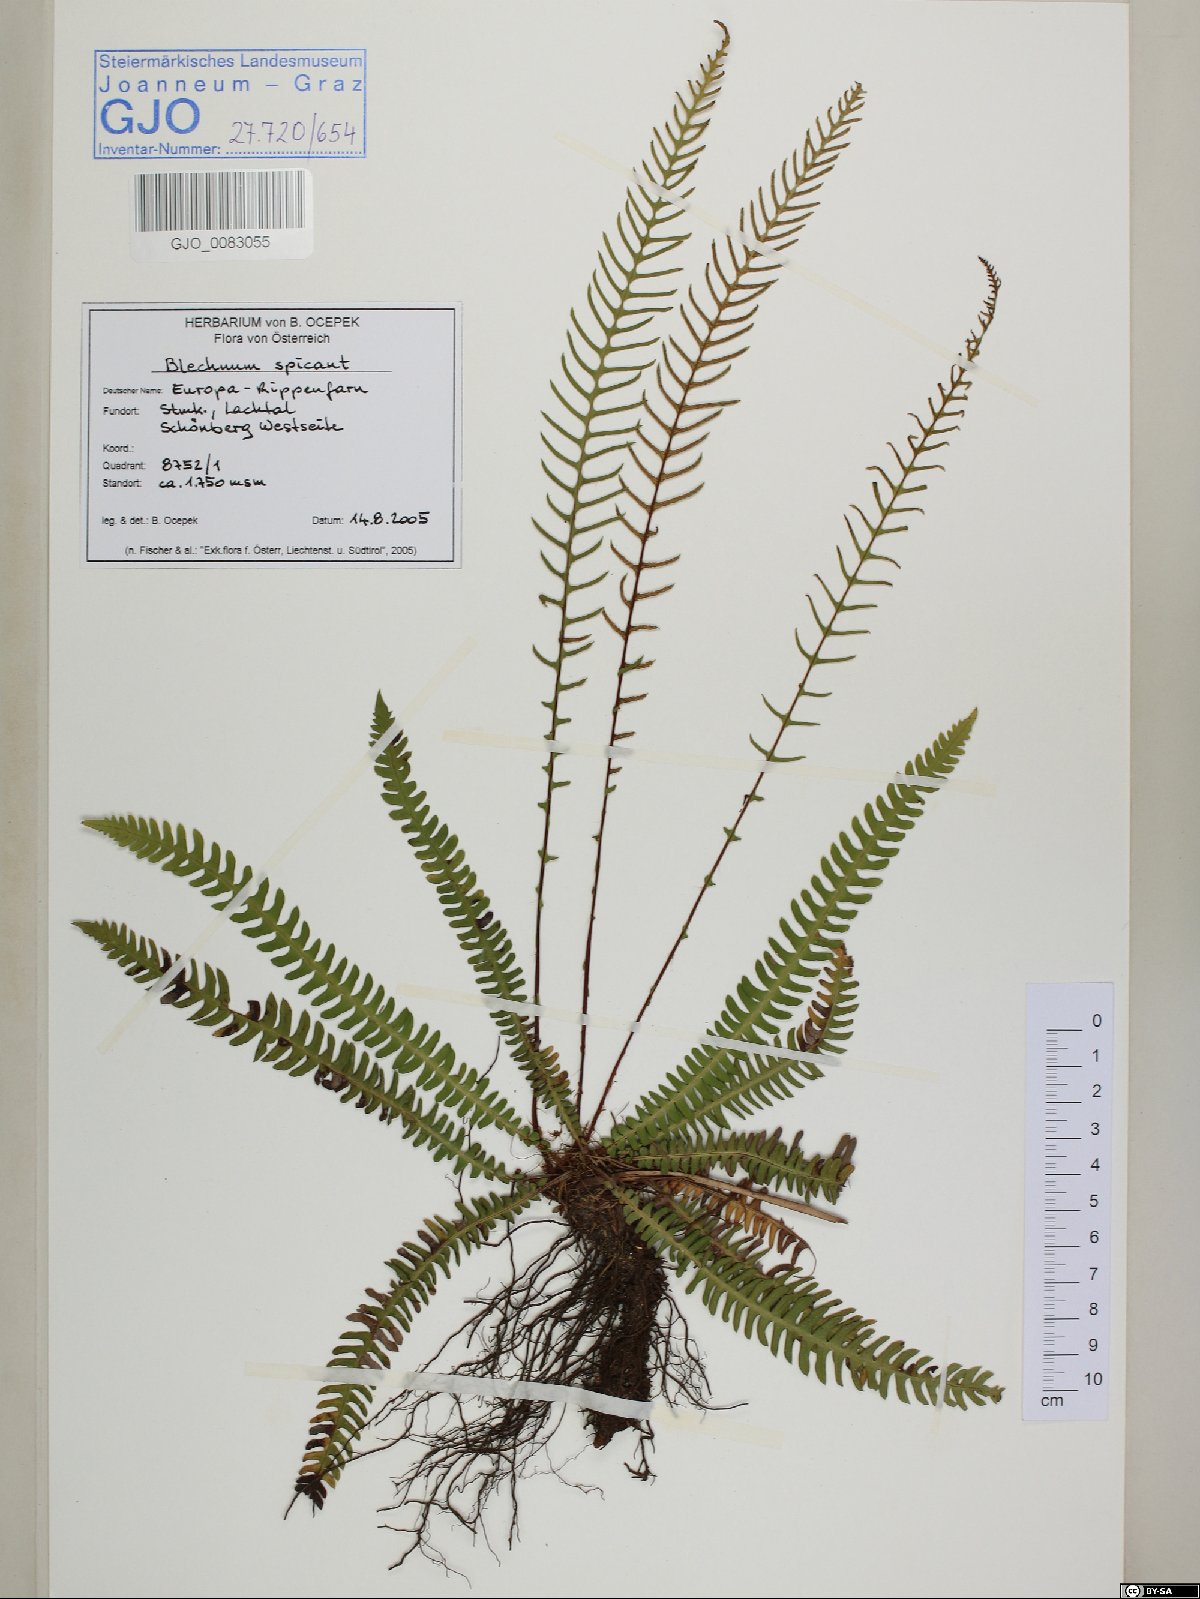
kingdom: Plantae
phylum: Tracheophyta
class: Polypodiopsida
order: Polypodiales
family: Blechnaceae
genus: Struthiopteris
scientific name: Struthiopteris spicant
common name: Deer fern
